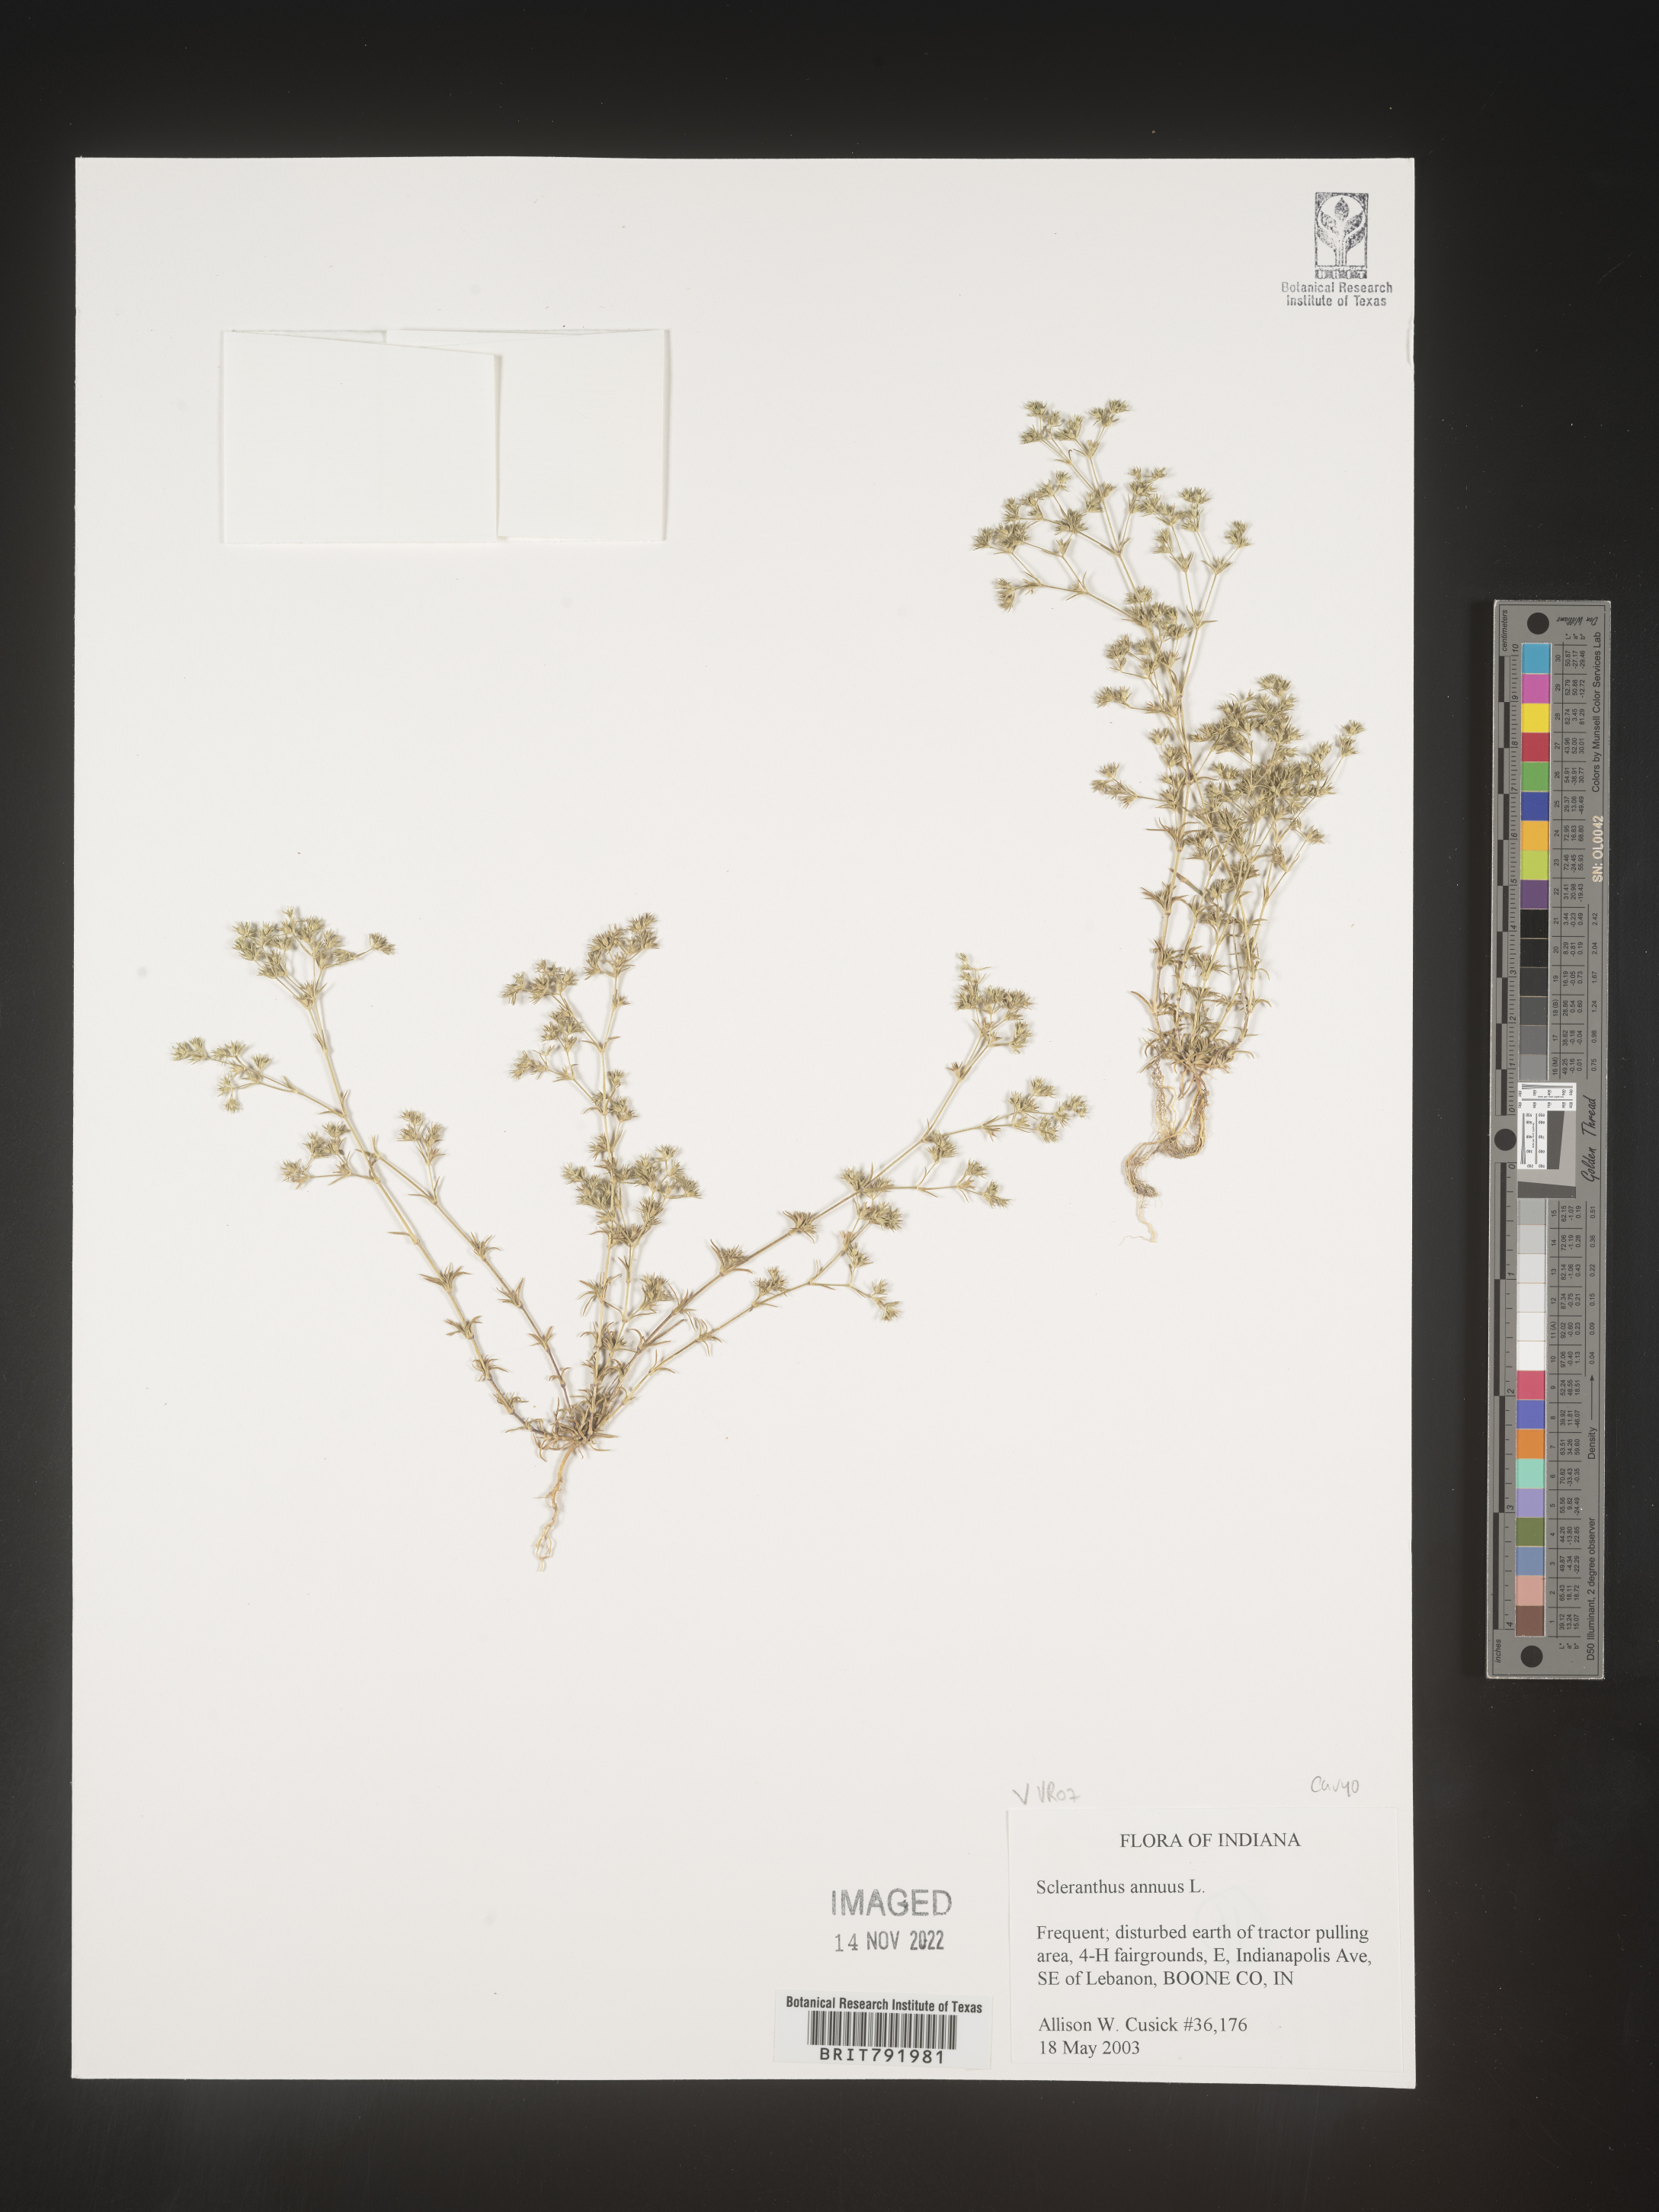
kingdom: Plantae
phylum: Tracheophyta
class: Magnoliopsida
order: Caryophyllales
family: Caryophyllaceae
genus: Scleranthus
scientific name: Scleranthus
